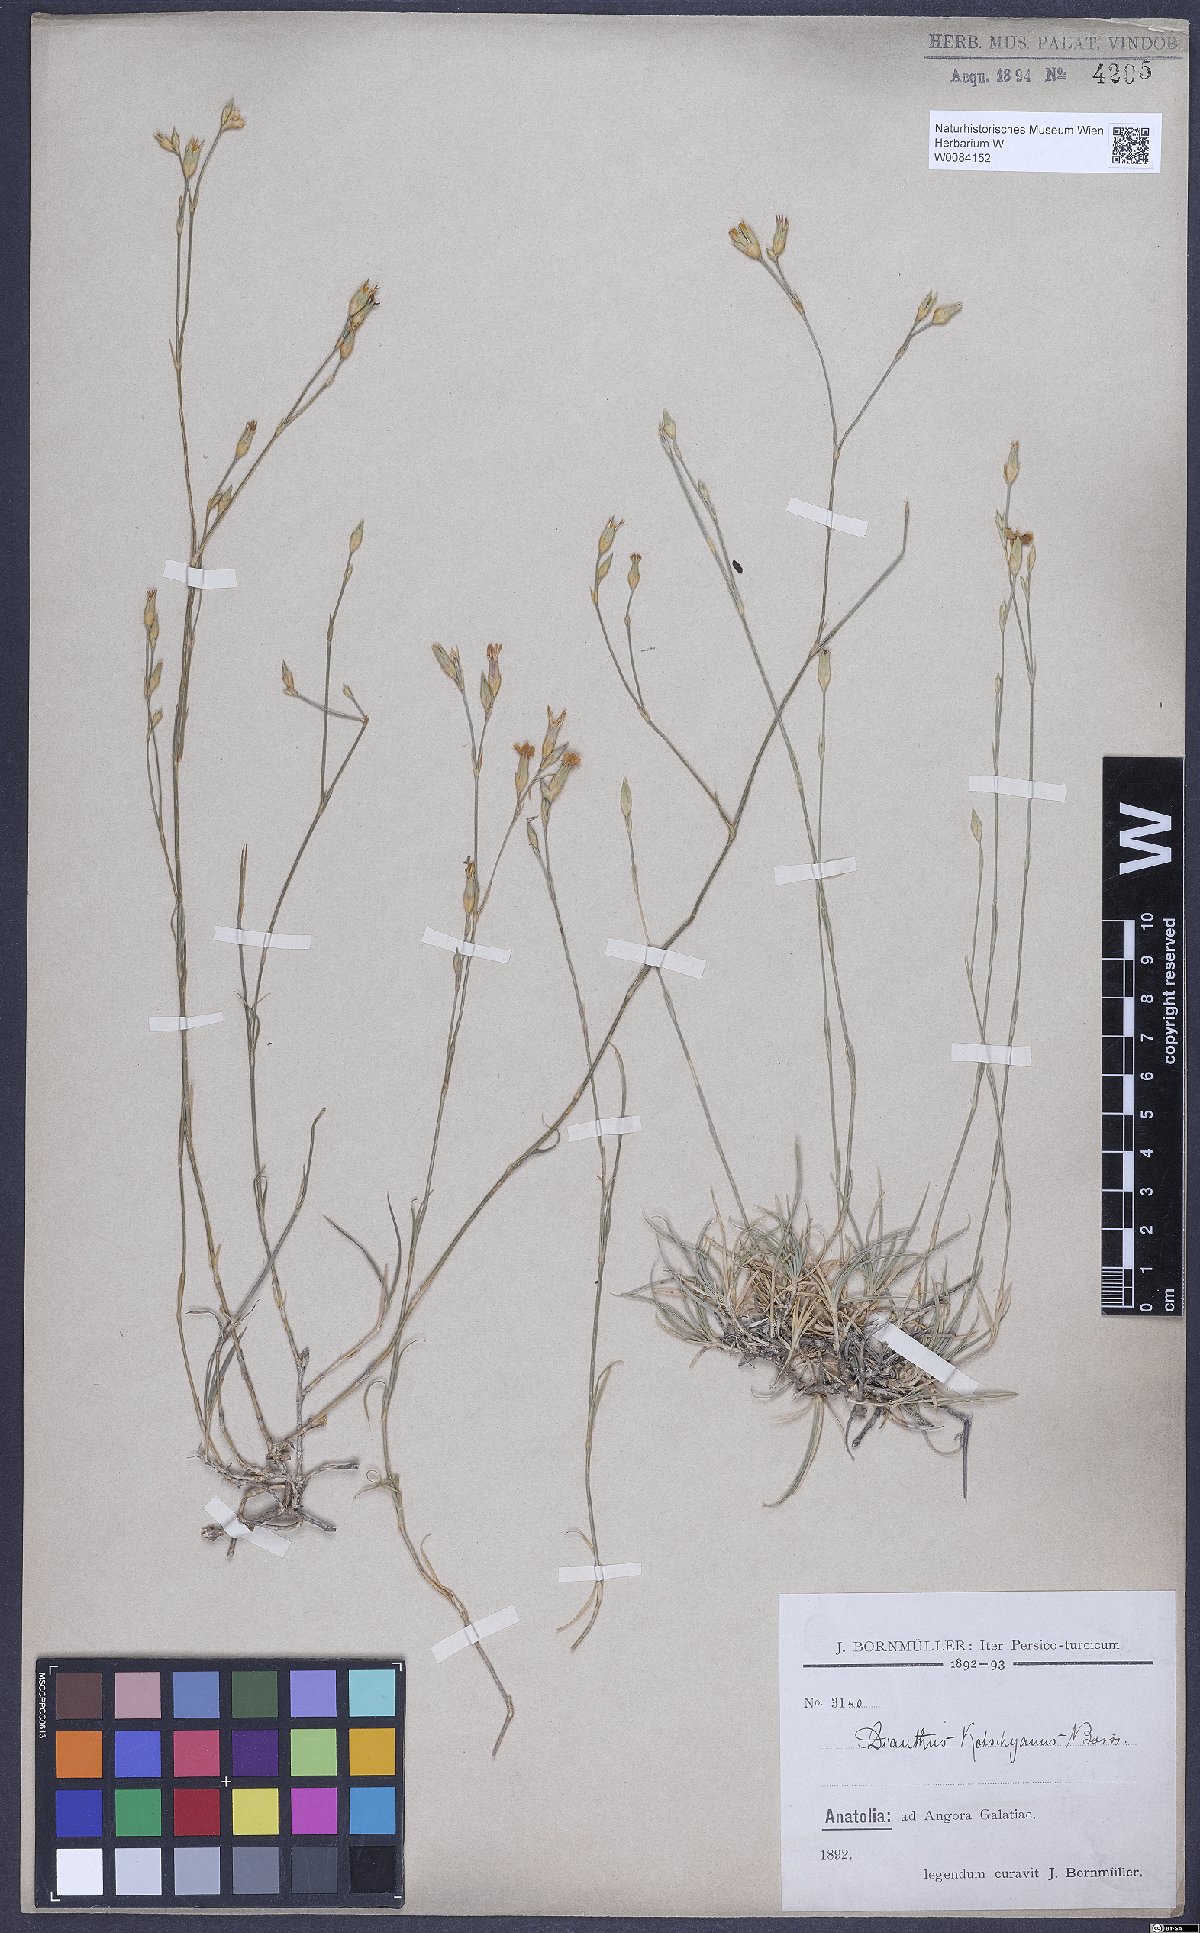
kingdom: Plantae
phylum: Tracheophyta
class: Magnoliopsida
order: Caryophyllales
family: Caryophyllaceae
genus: Dianthus
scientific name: Dianthus anatolicus
